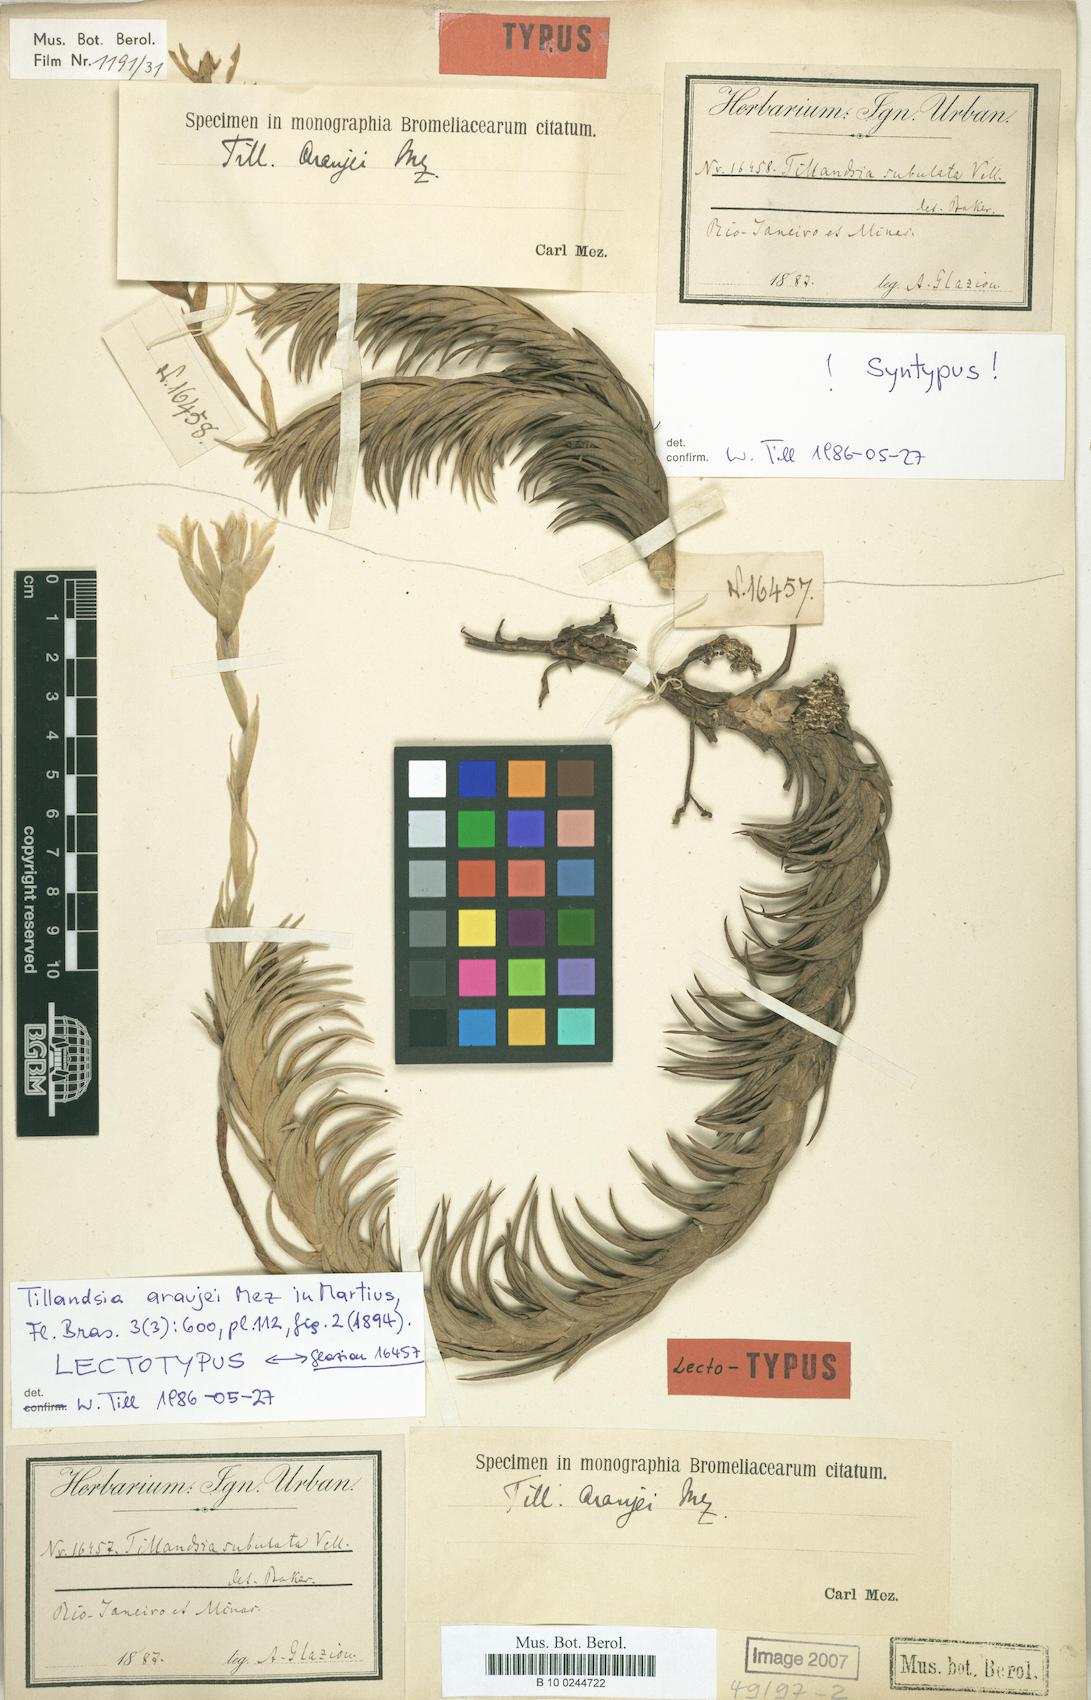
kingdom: Plantae
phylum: Tracheophyta
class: Liliopsida
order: Poales
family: Bromeliaceae
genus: Tillandsia
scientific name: Tillandsia tenuifolia
